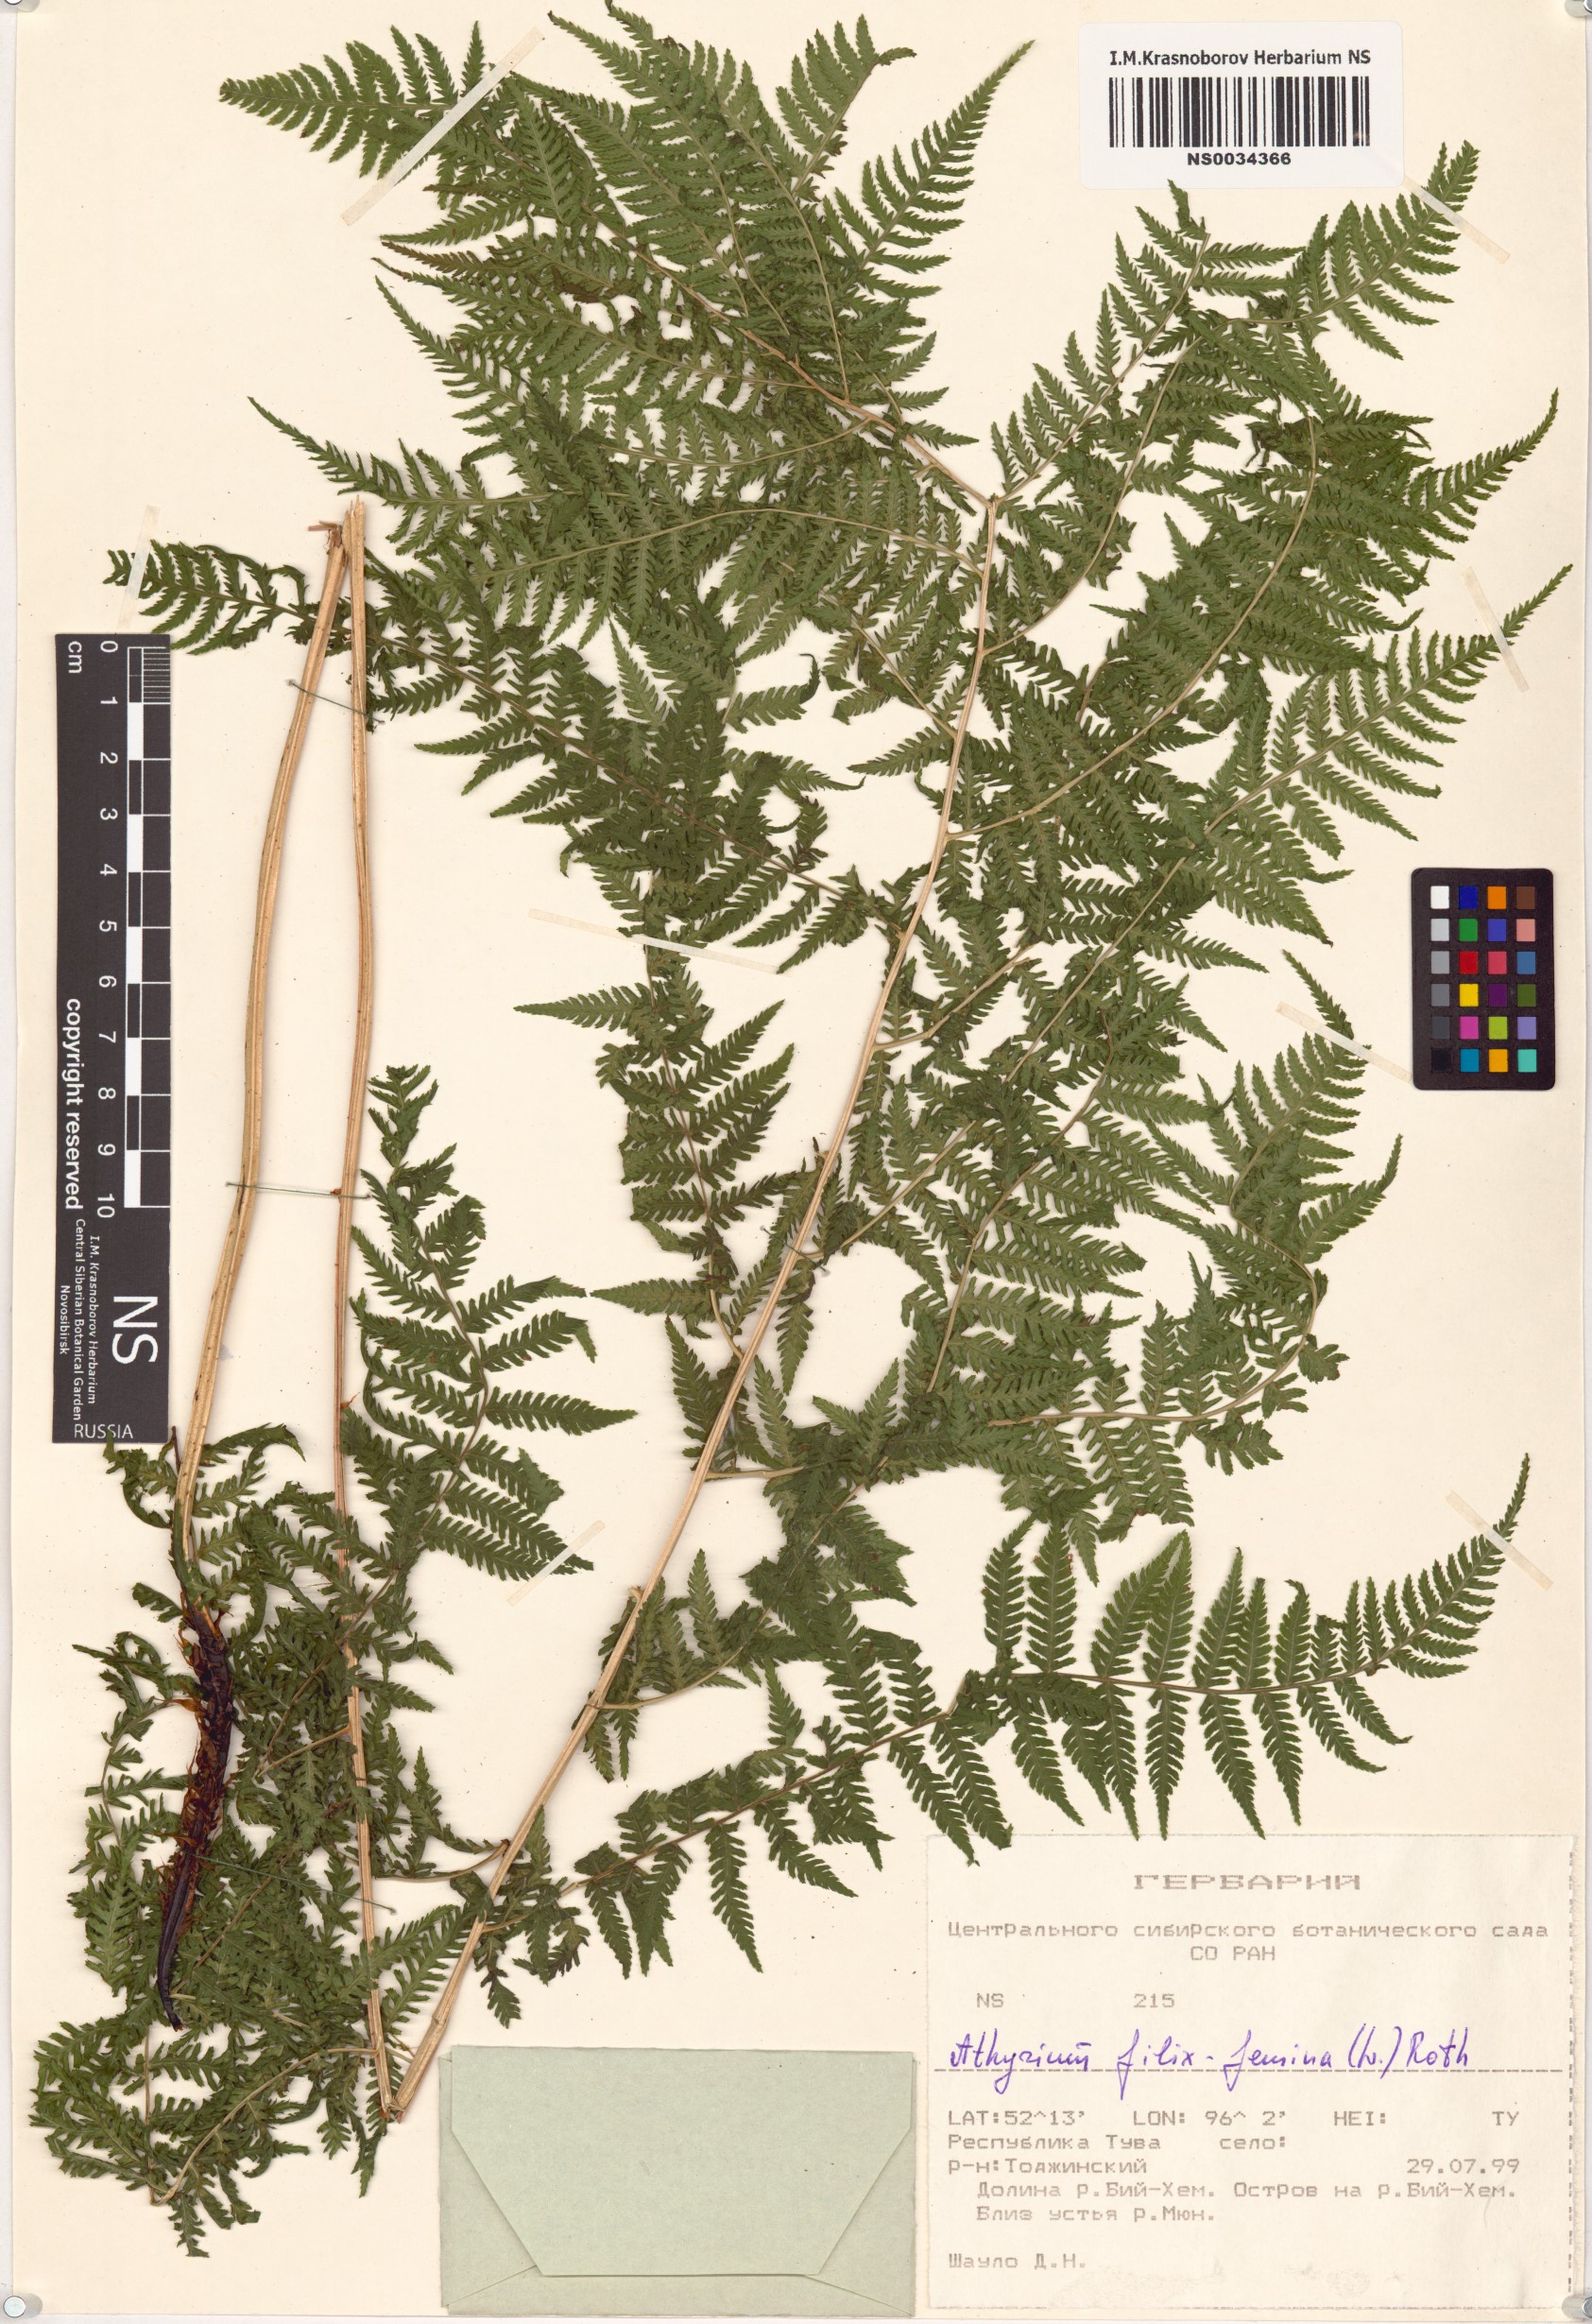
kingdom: Plantae
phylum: Tracheophyta
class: Polypodiopsida
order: Polypodiales
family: Athyriaceae
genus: Athyrium
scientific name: Athyrium filix-femina
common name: Lady fern
